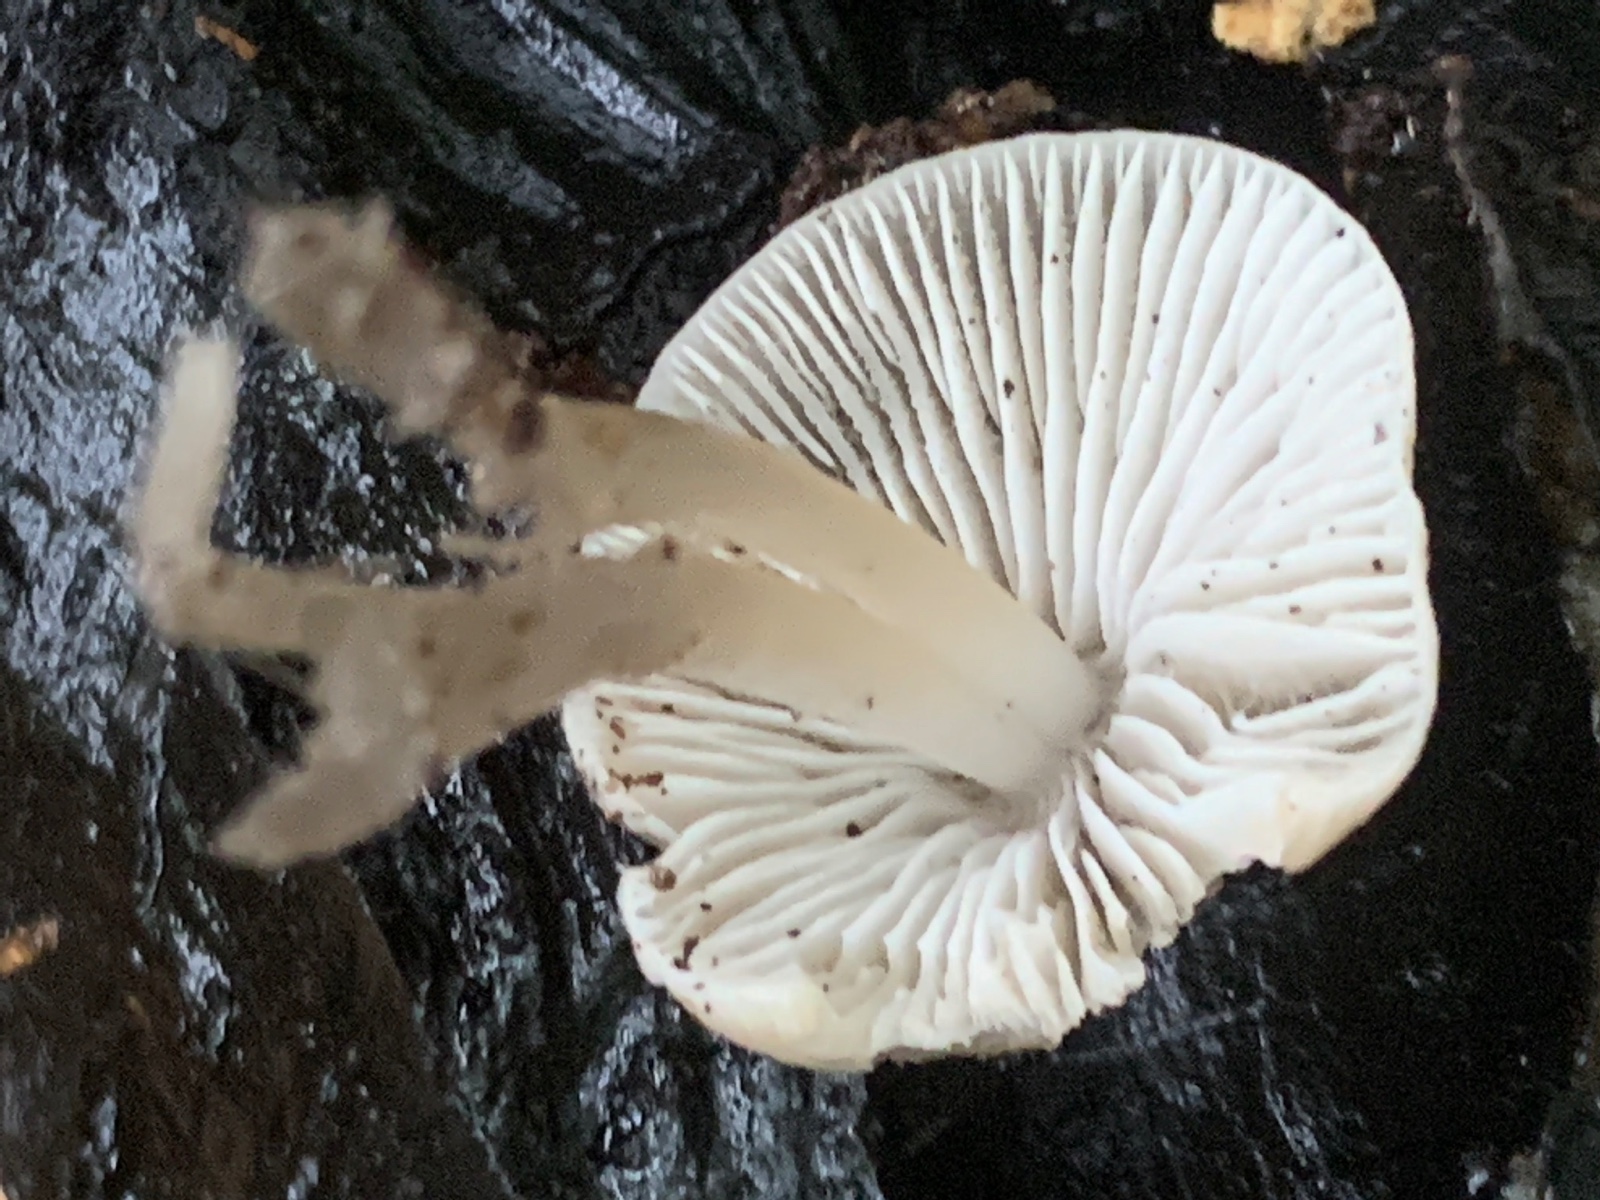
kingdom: Fungi
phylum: Basidiomycota
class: Agaricomycetes
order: Agaricales
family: Mycenaceae
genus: Mycena
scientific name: Mycena galericulata
